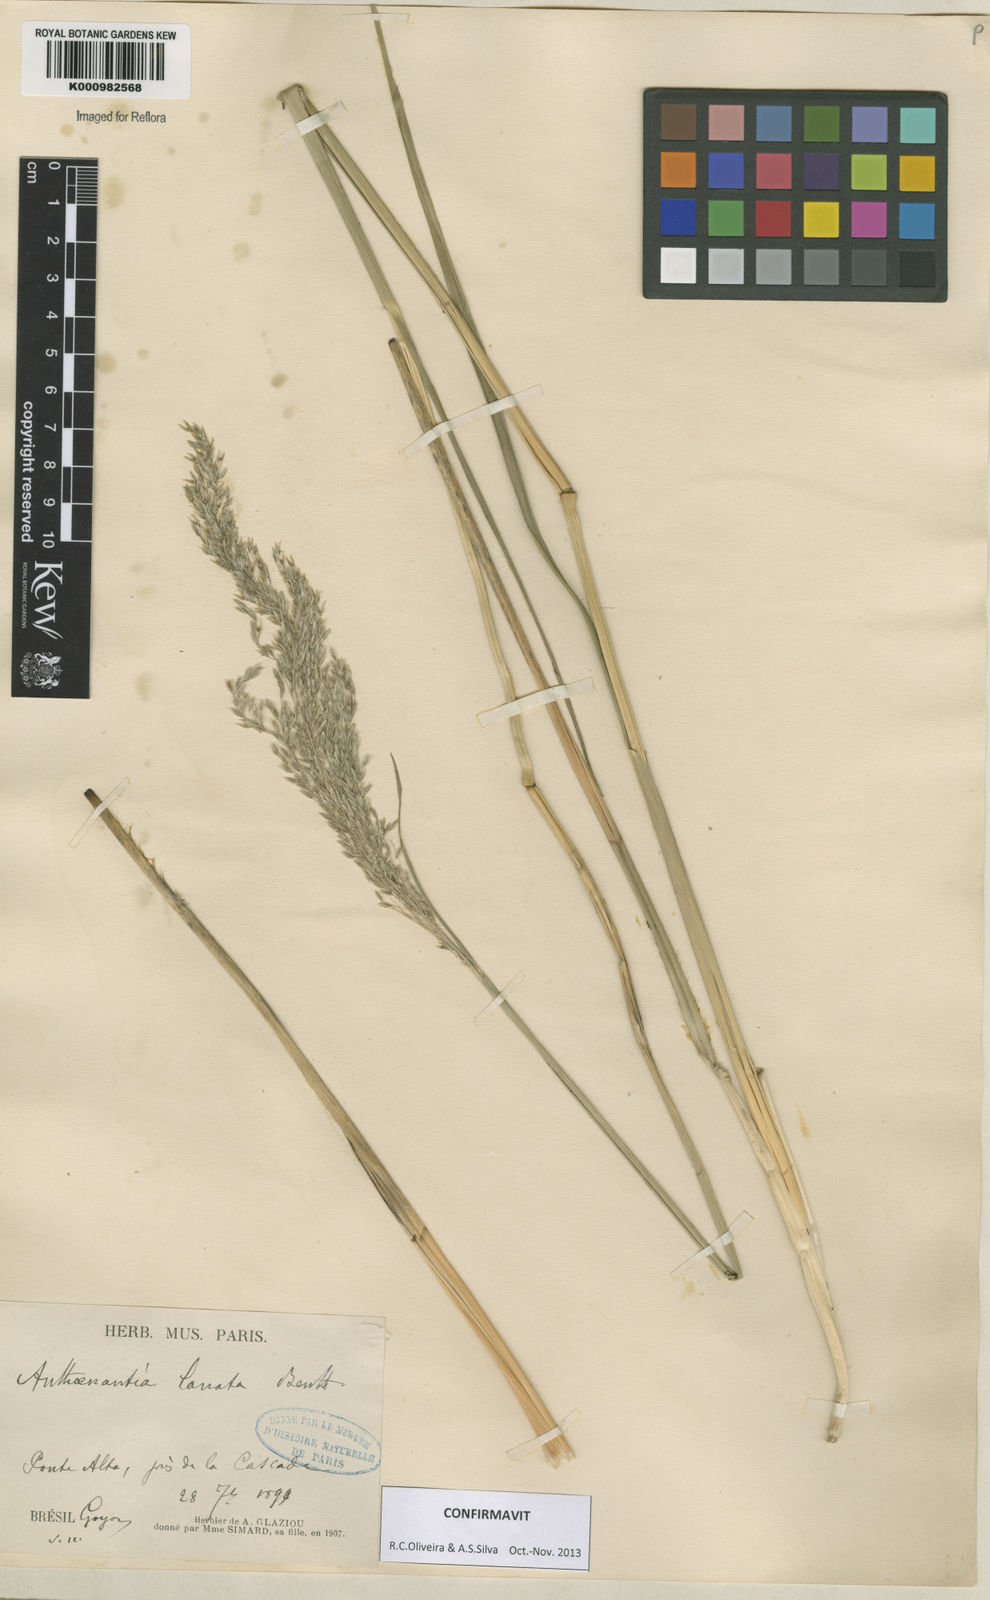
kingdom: Plantae
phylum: Tracheophyta
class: Liliopsida
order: Poales
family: Poaceae
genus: Anthenantia
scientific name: Anthenantia lanata
